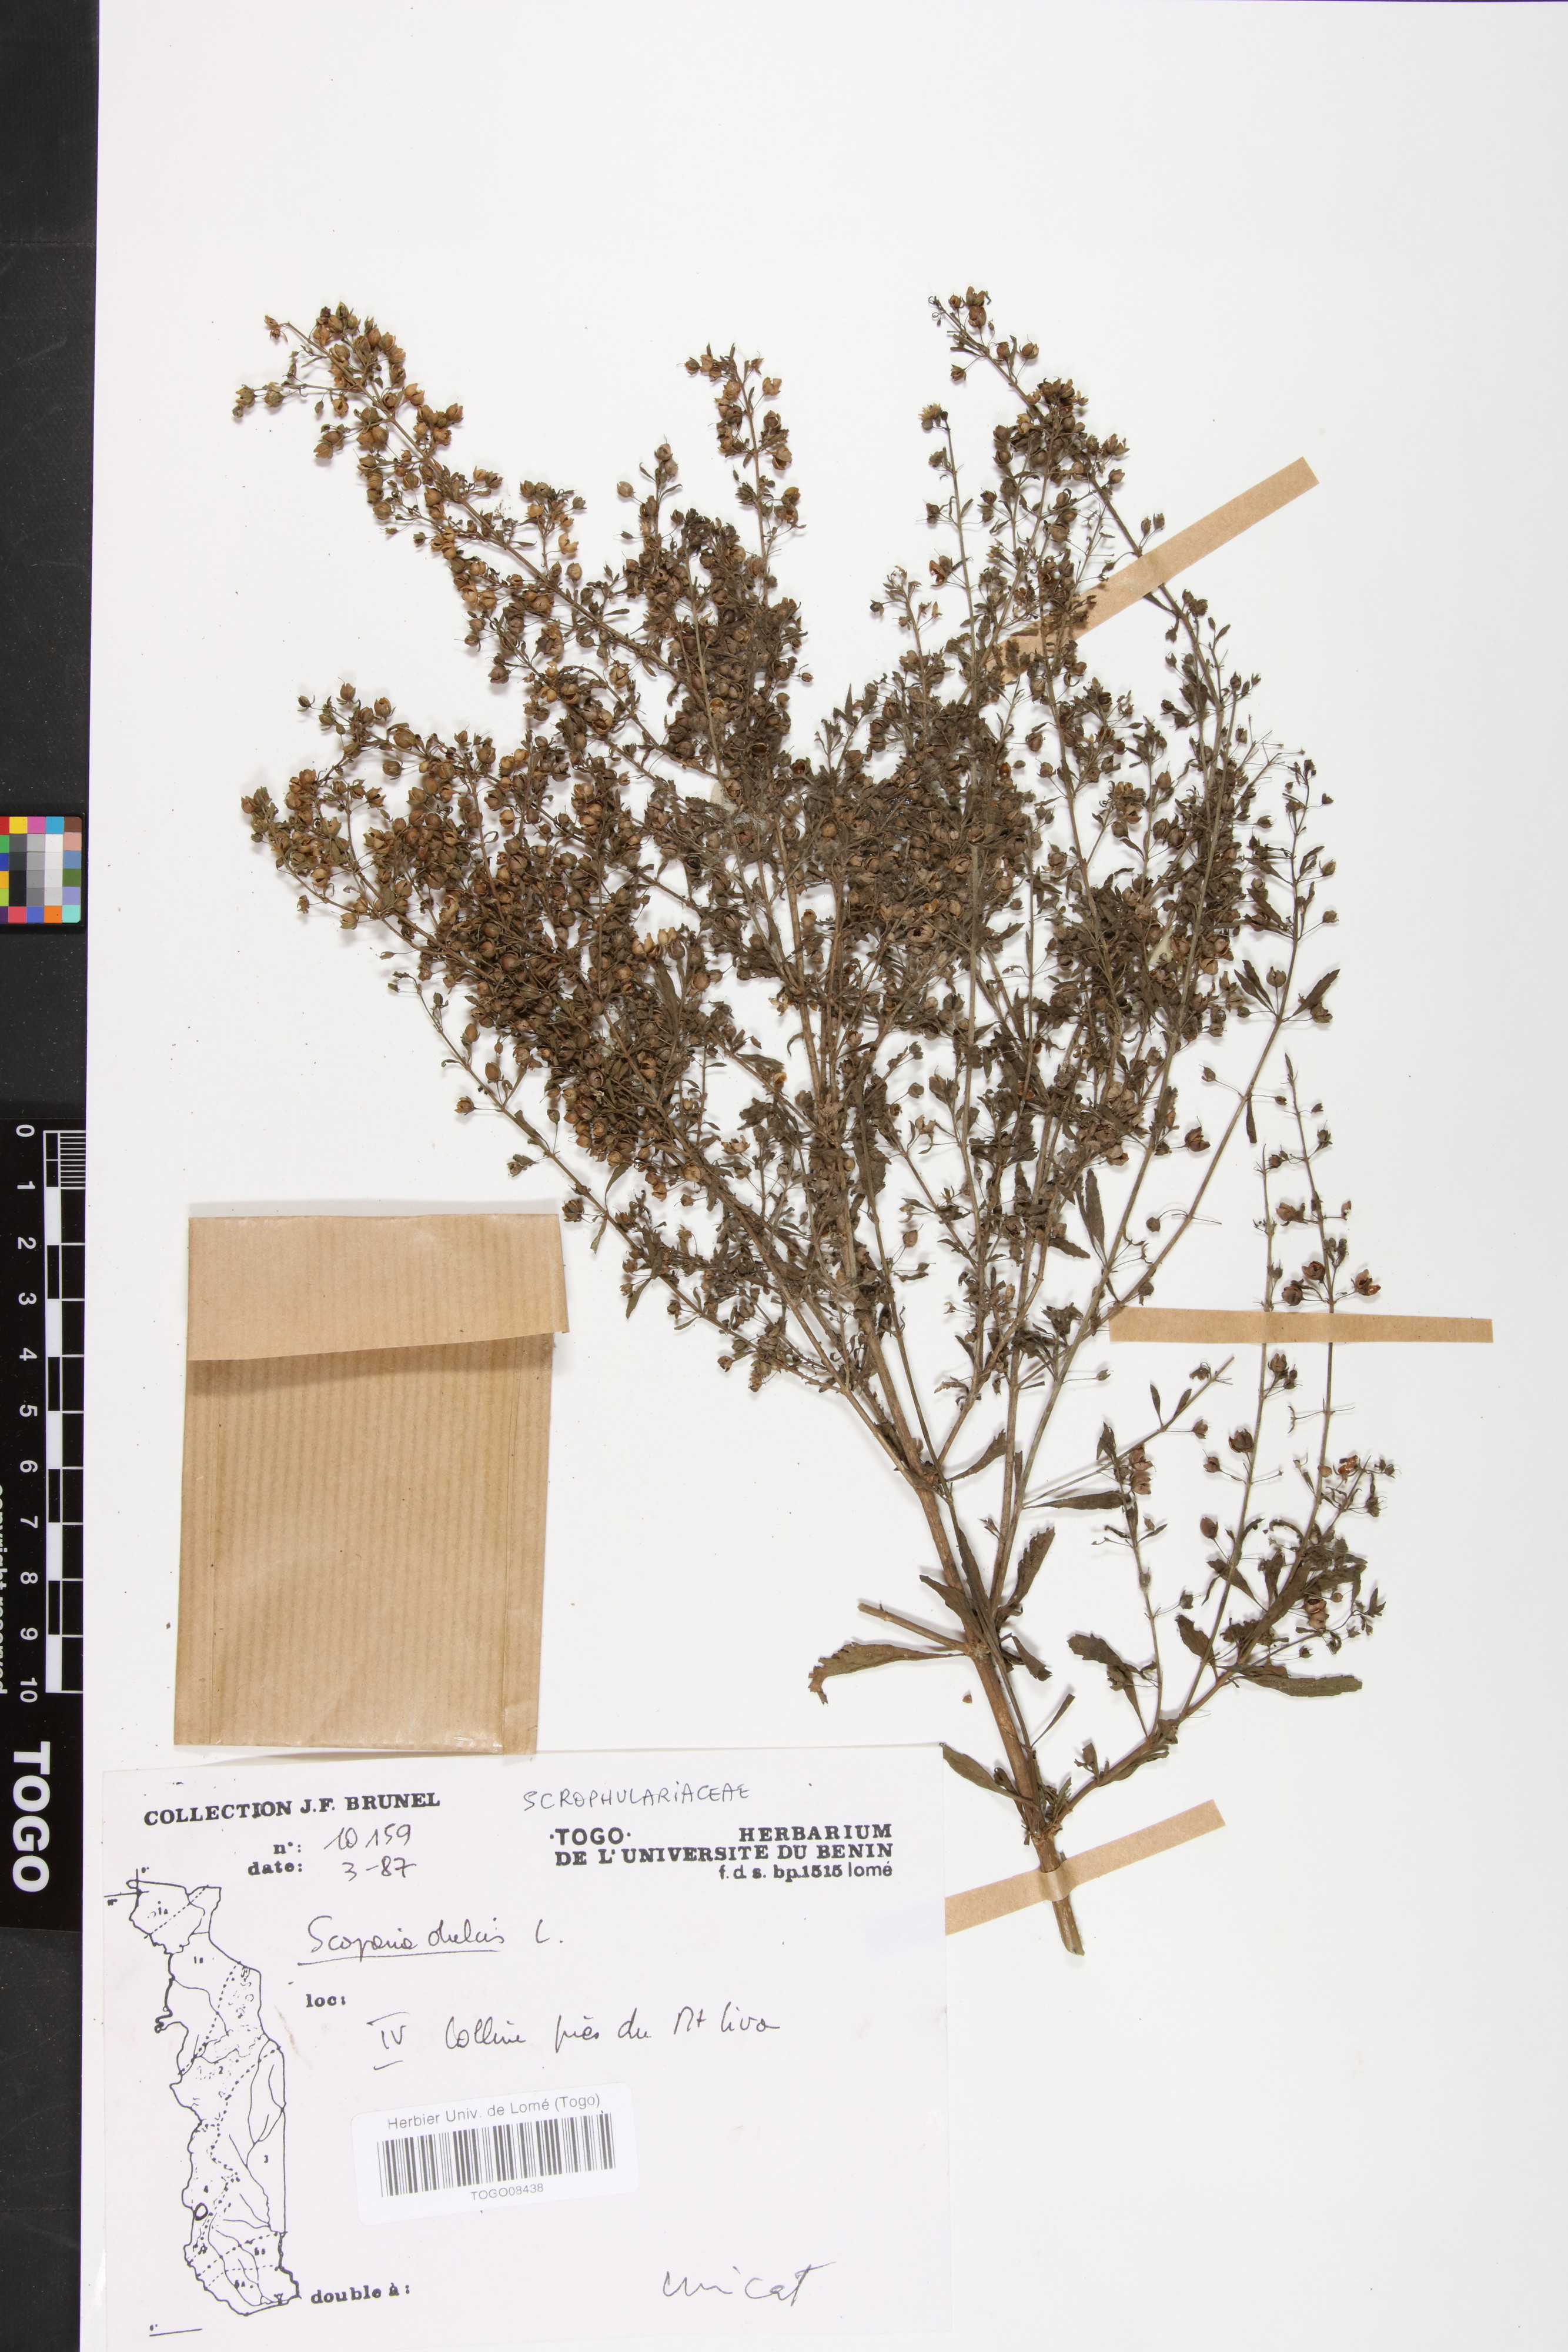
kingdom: Plantae
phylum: Tracheophyta
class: Magnoliopsida
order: Lamiales
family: Plantaginaceae
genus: Scoparia
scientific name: Scoparia dulcis
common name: Scoparia-weed
